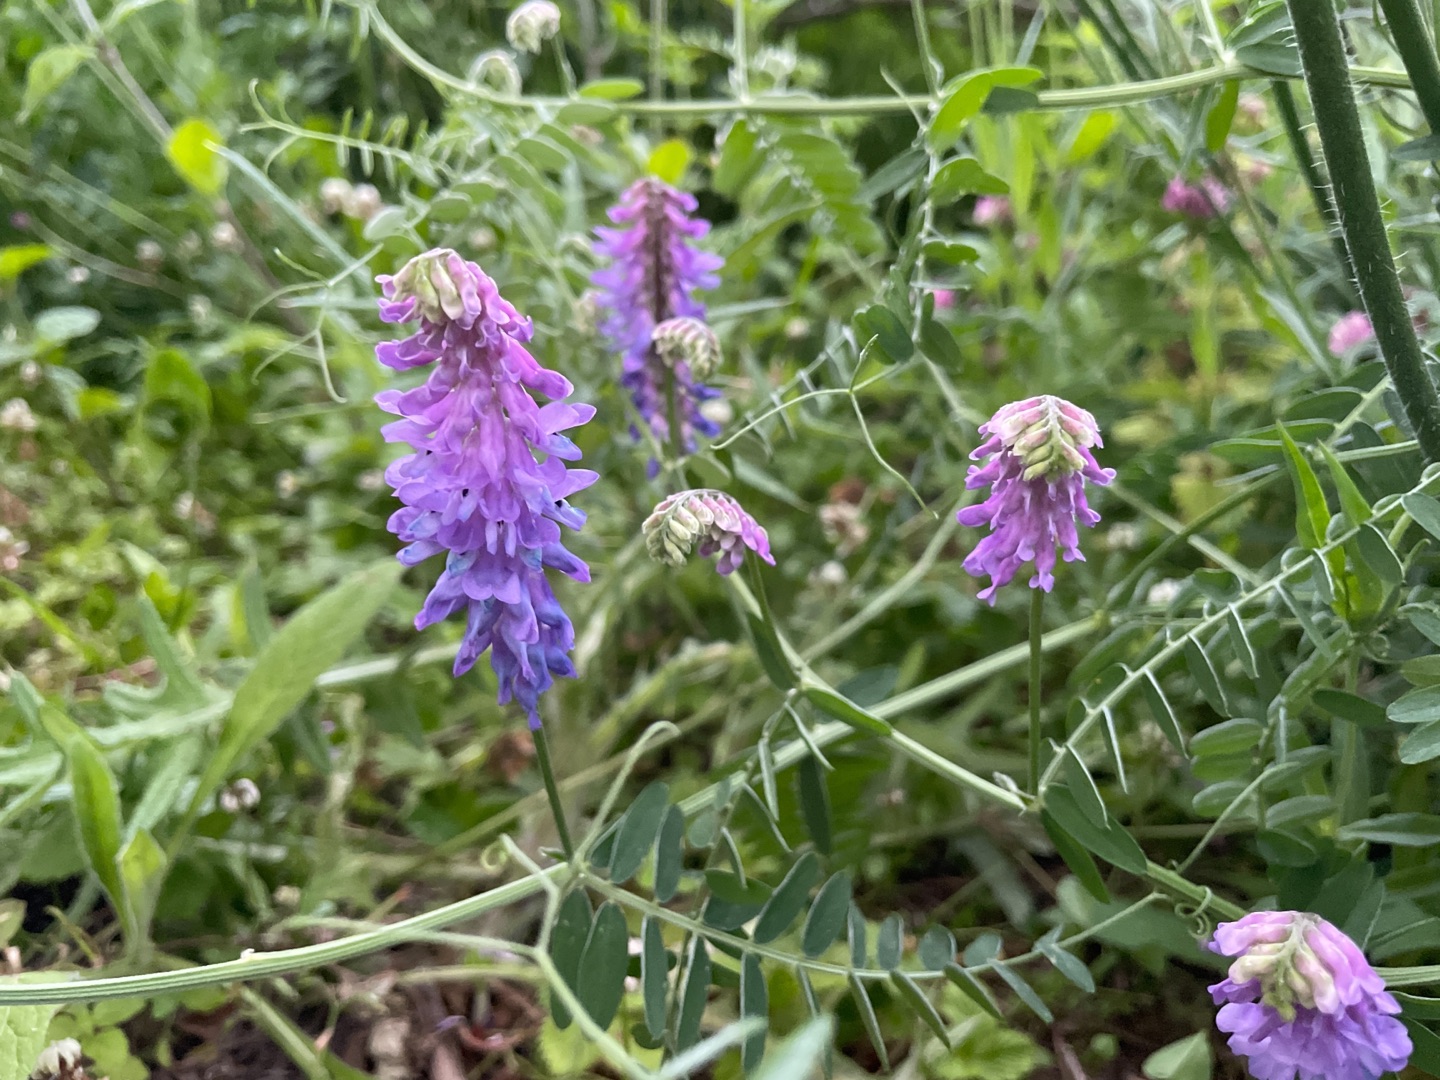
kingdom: Plantae
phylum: Tracheophyta
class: Magnoliopsida
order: Fabales
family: Fabaceae
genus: Vicia
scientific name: Vicia cracca
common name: Muse-vikke
